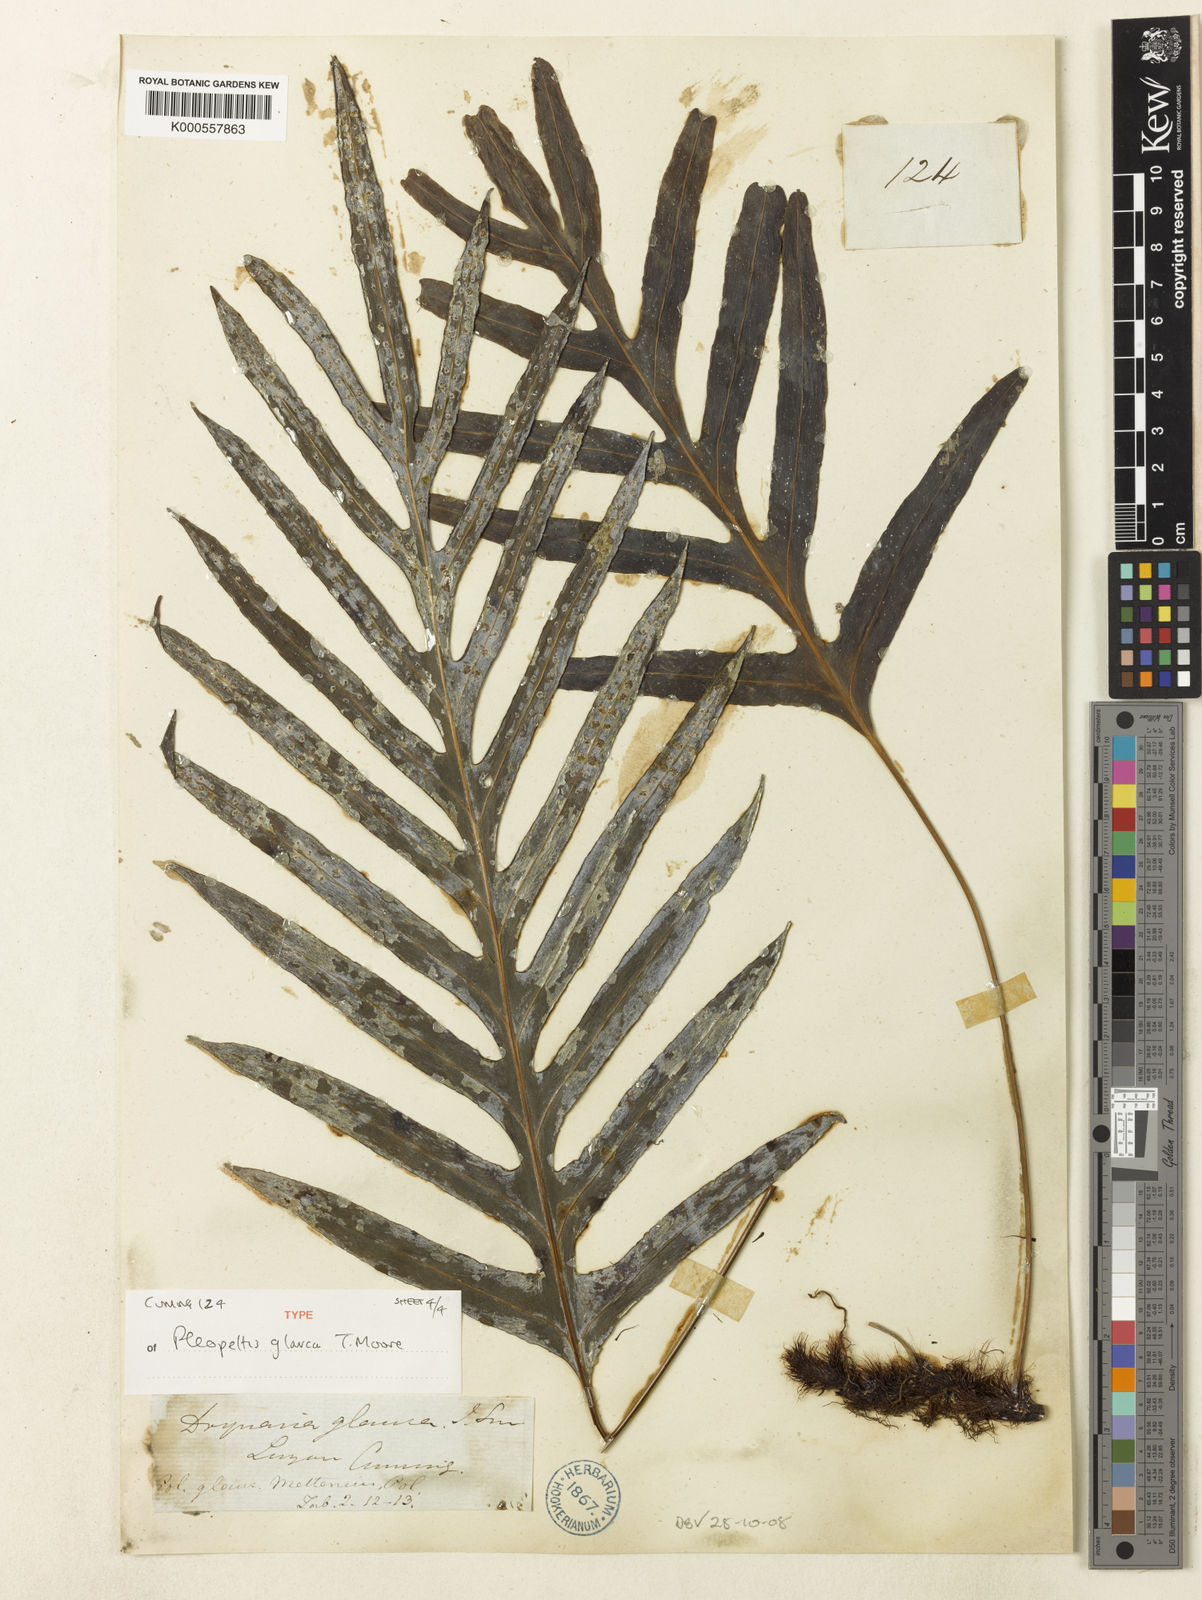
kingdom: Plantae
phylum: Tracheophyta
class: Polypodiopsida
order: Polypodiales
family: Polypodiaceae
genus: Selliguea
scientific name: Selliguea glauca
